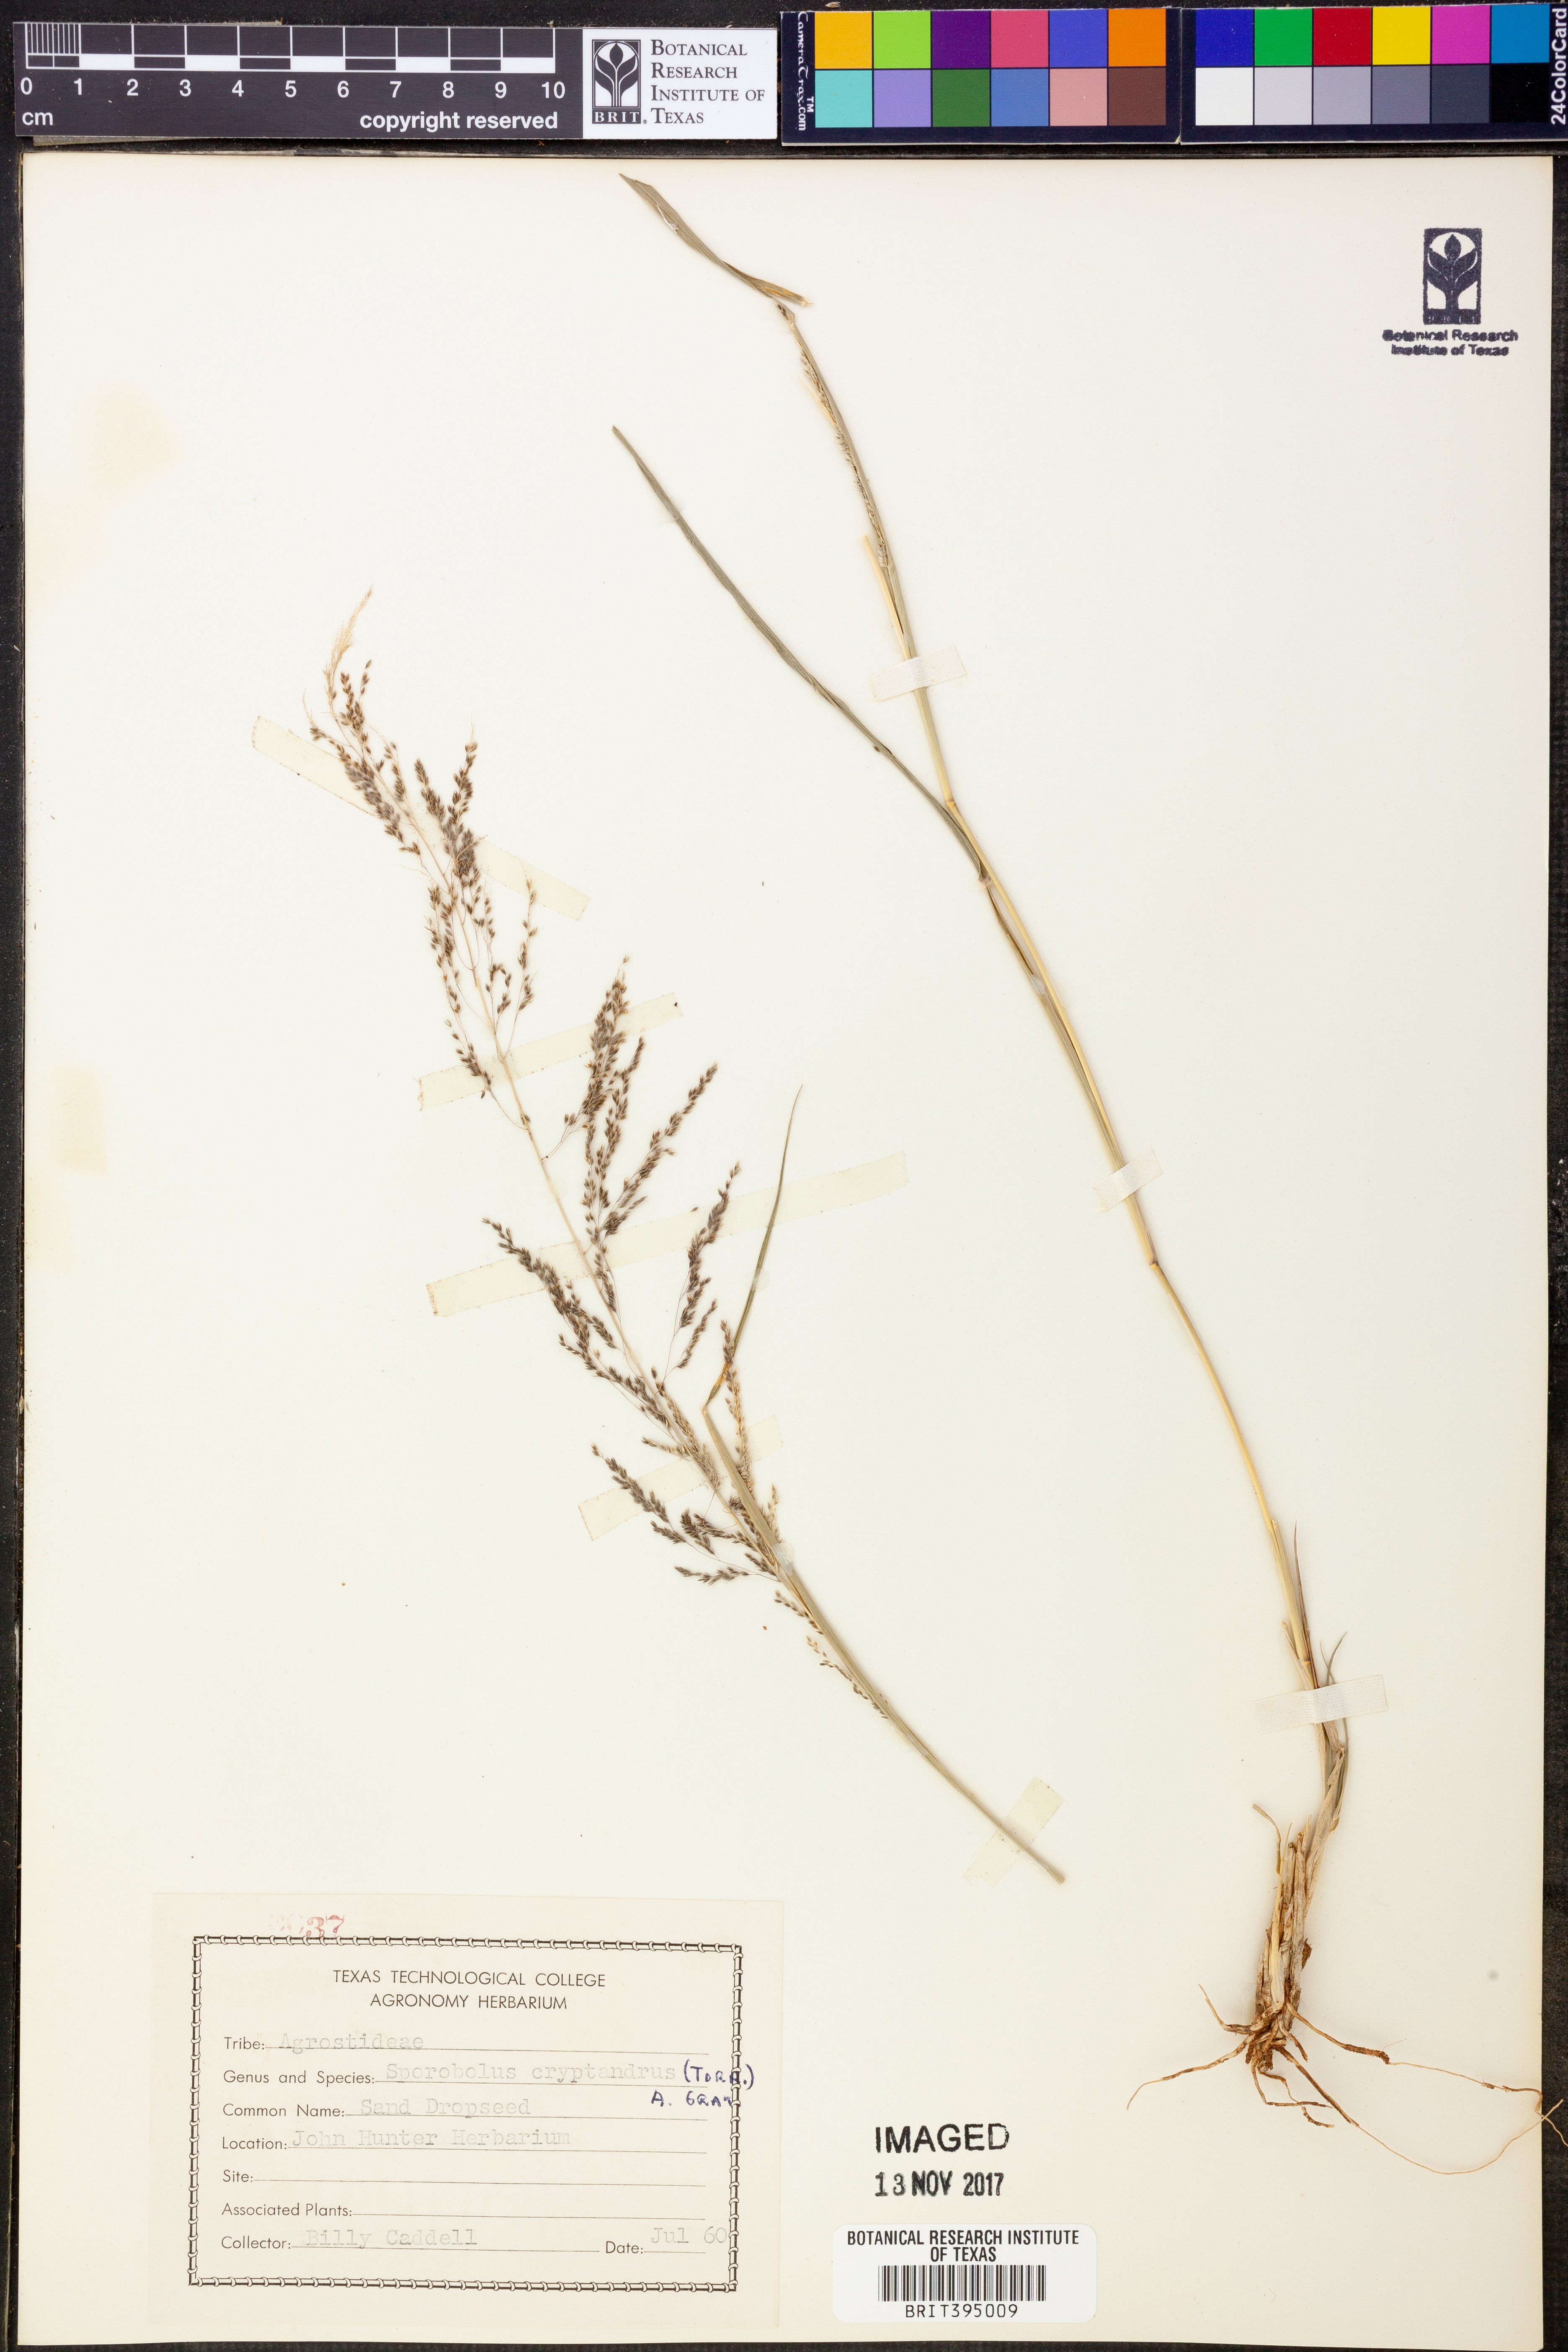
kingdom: Plantae
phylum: Tracheophyta
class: Liliopsida
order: Poales
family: Poaceae
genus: Sporobolus
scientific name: Sporobolus cryptandrus
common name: Sand dropseed
